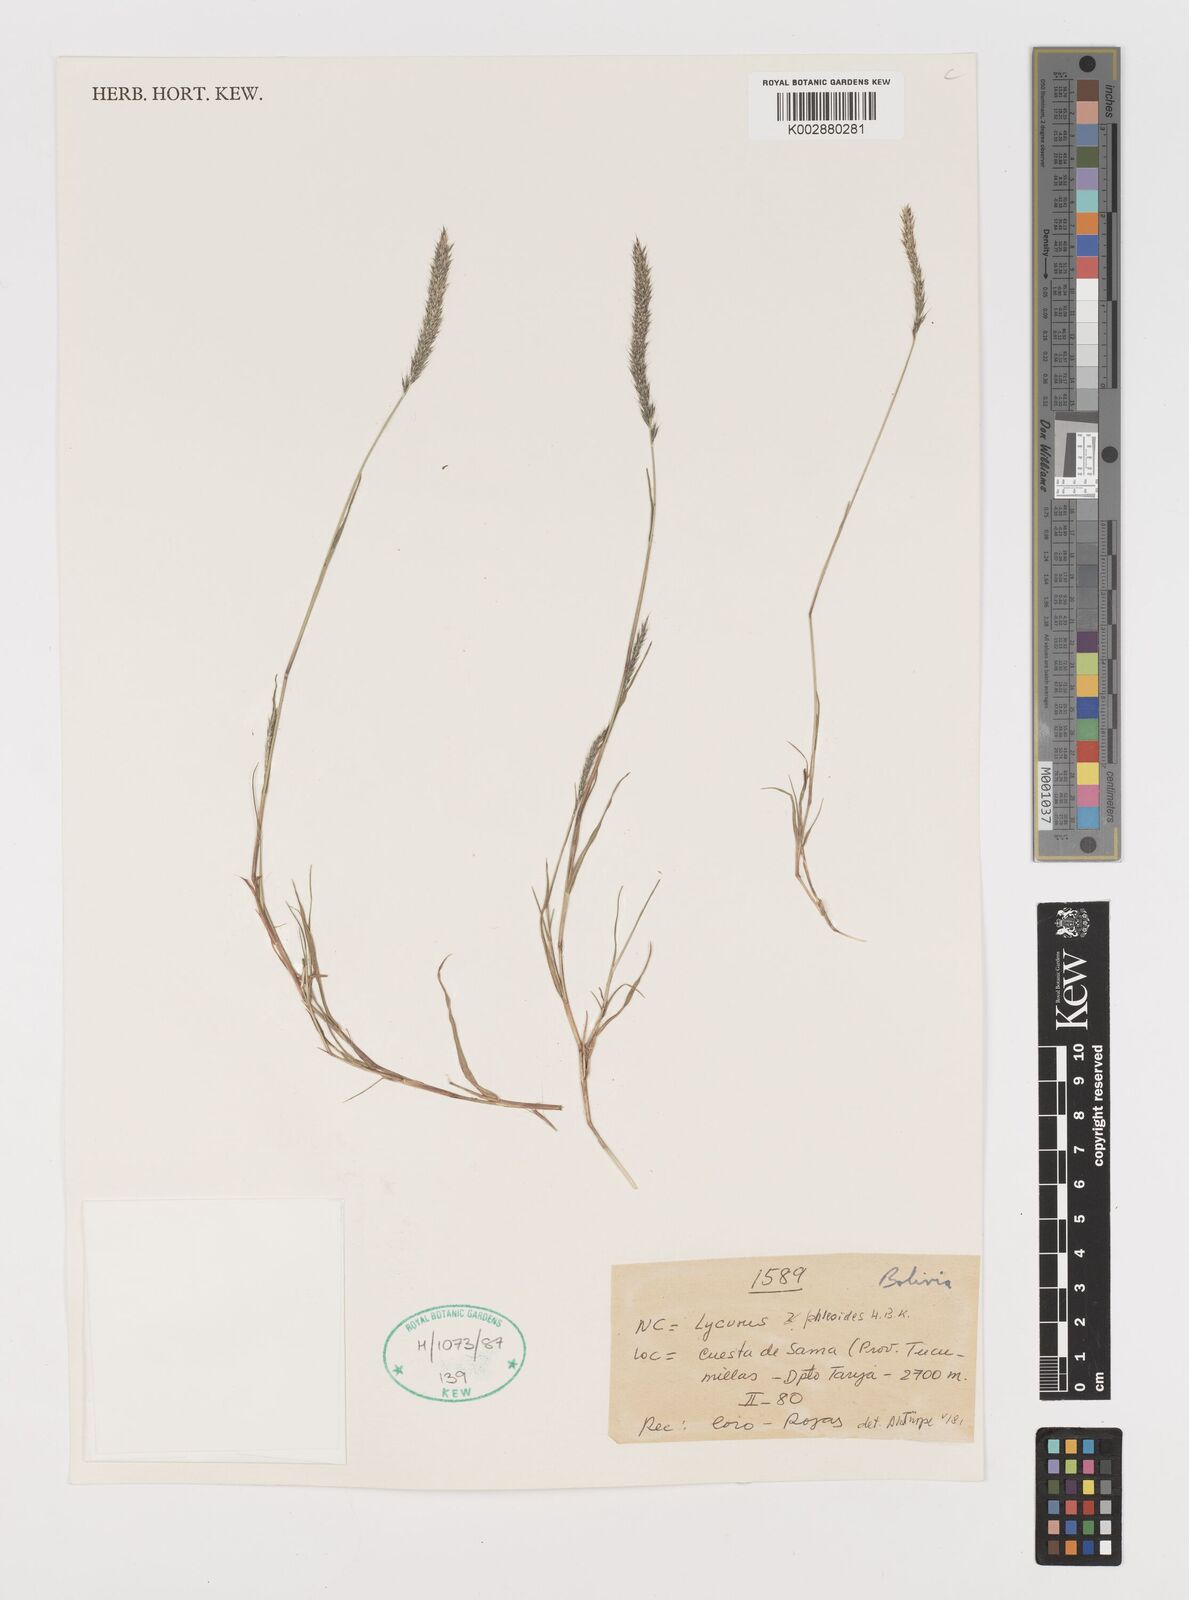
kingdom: Plantae
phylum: Tracheophyta
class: Liliopsida
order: Poales
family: Poaceae
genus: Muhlenbergia
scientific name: Muhlenbergia phleoides
